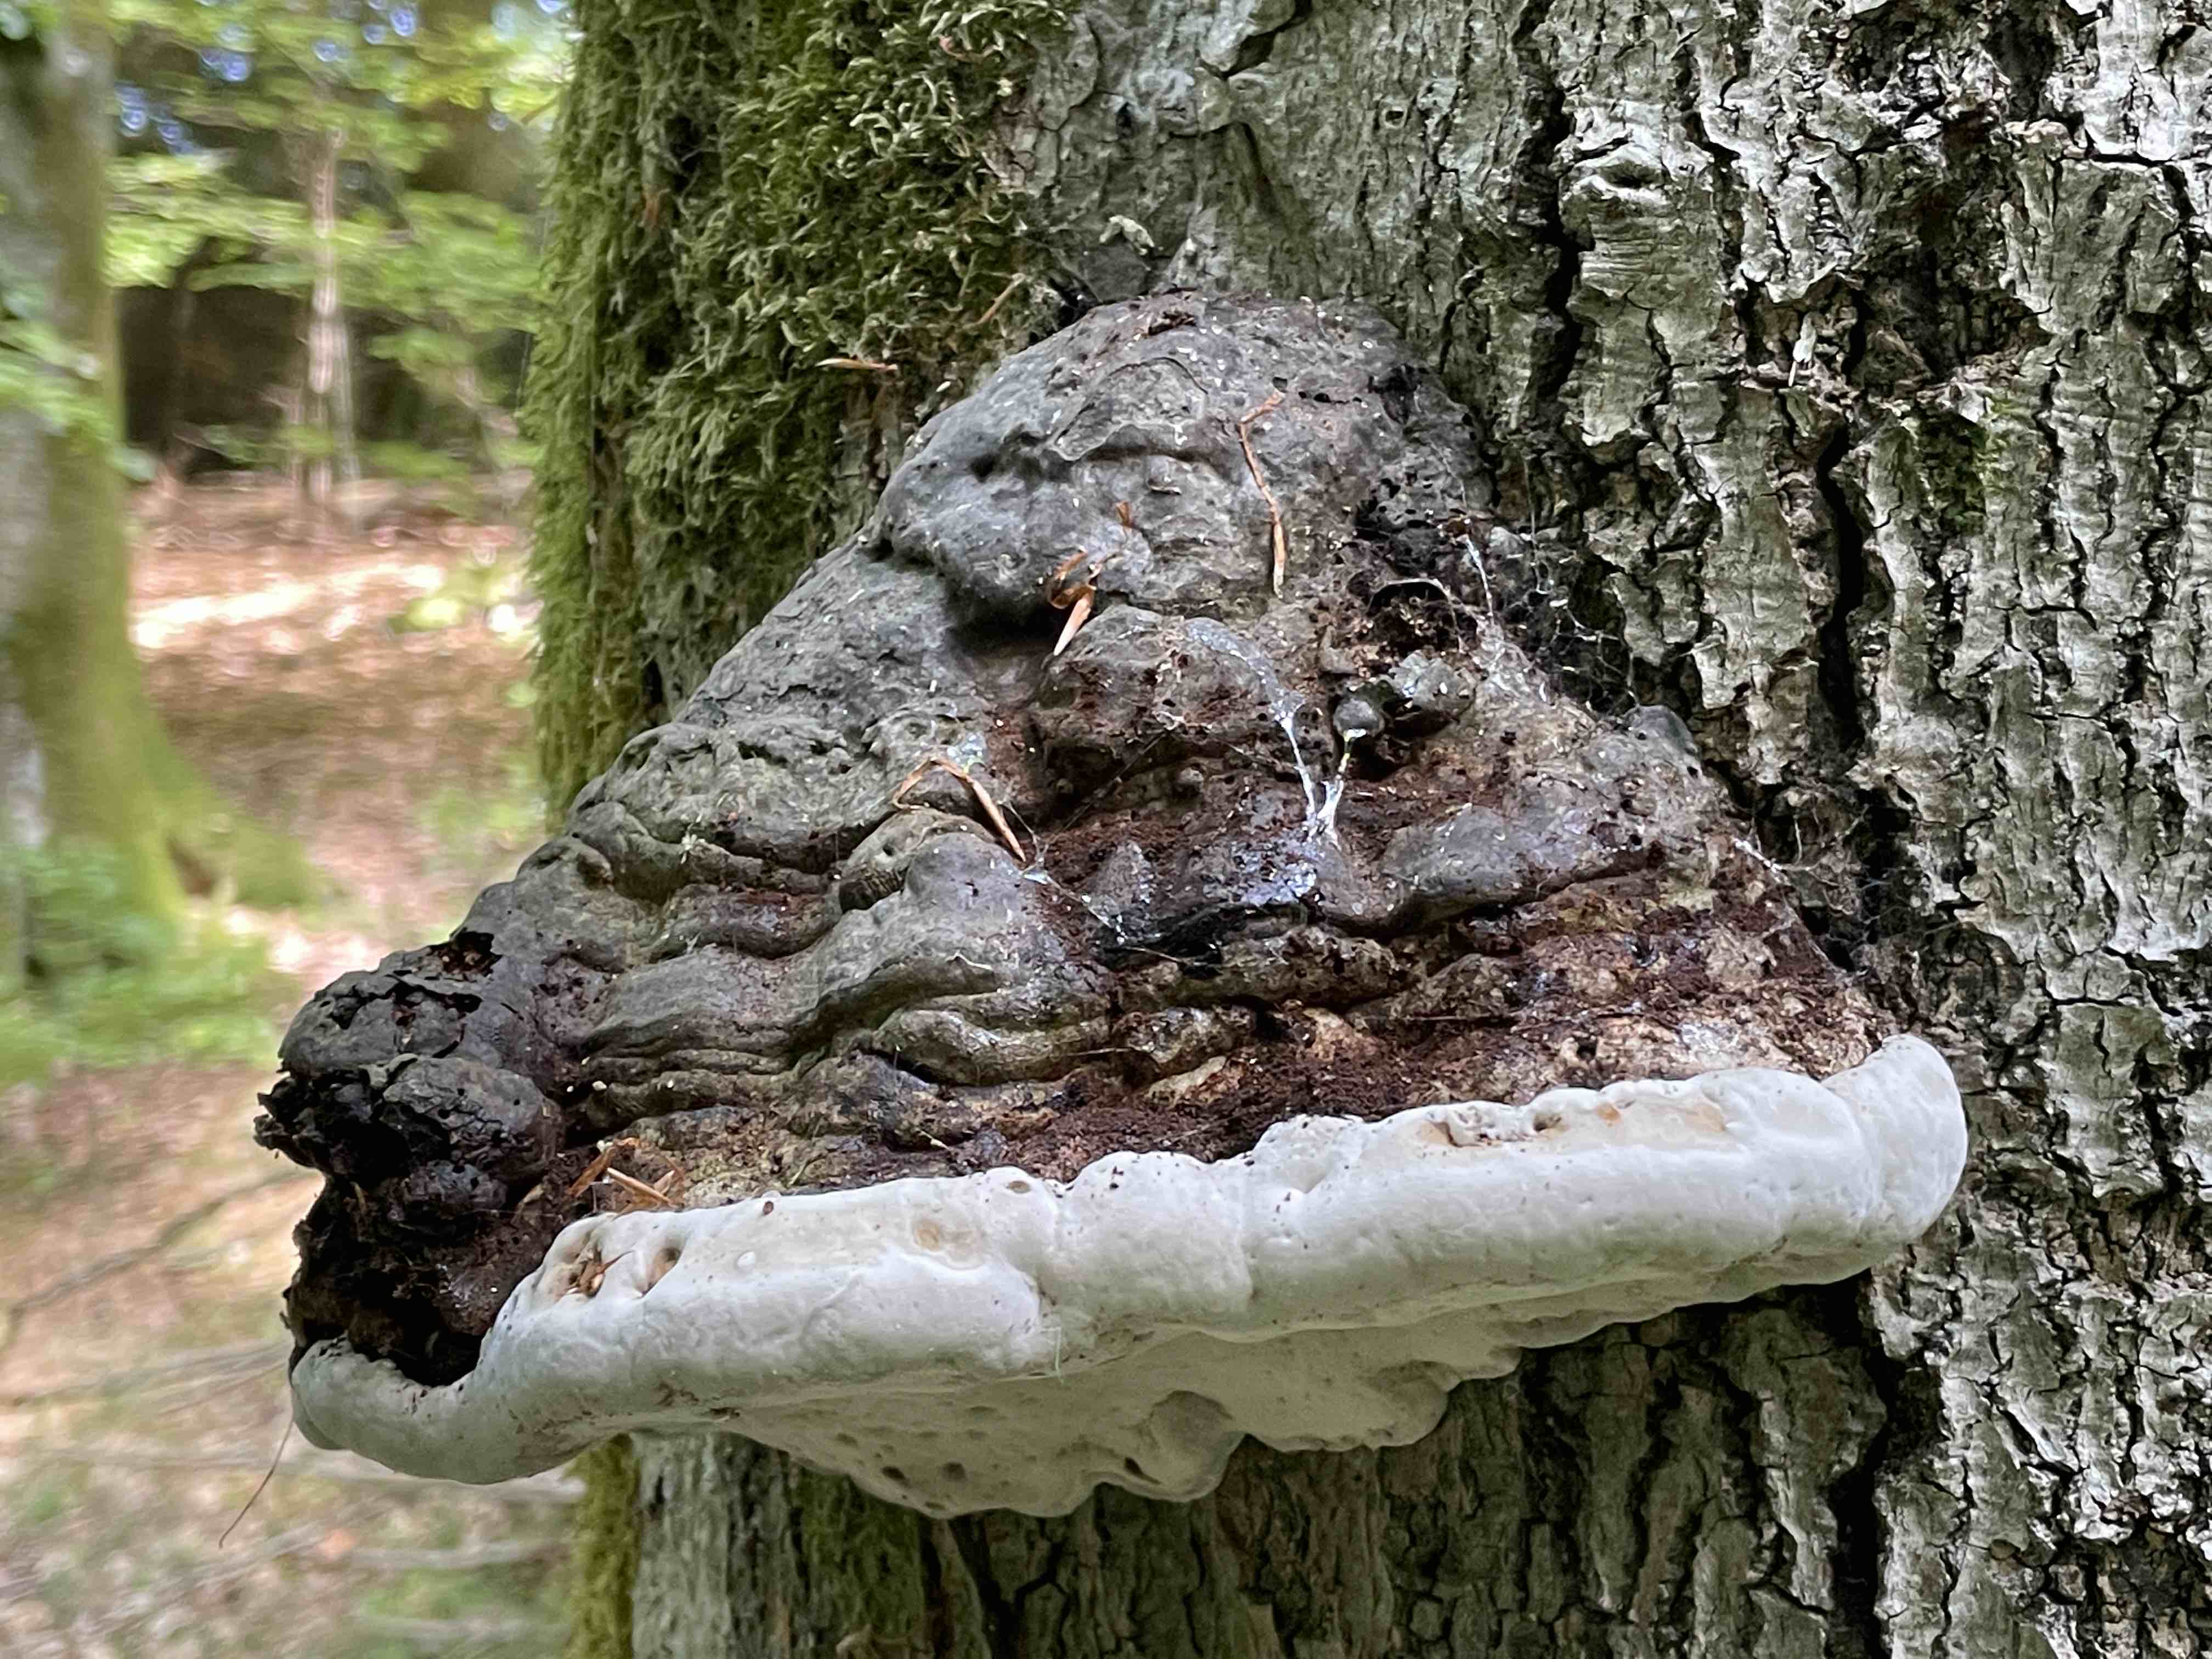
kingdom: Fungi
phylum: Basidiomycota
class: Agaricomycetes
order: Polyporales
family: Polyporaceae
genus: Fomes
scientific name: Fomes fomentarius
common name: tøndersvamp
